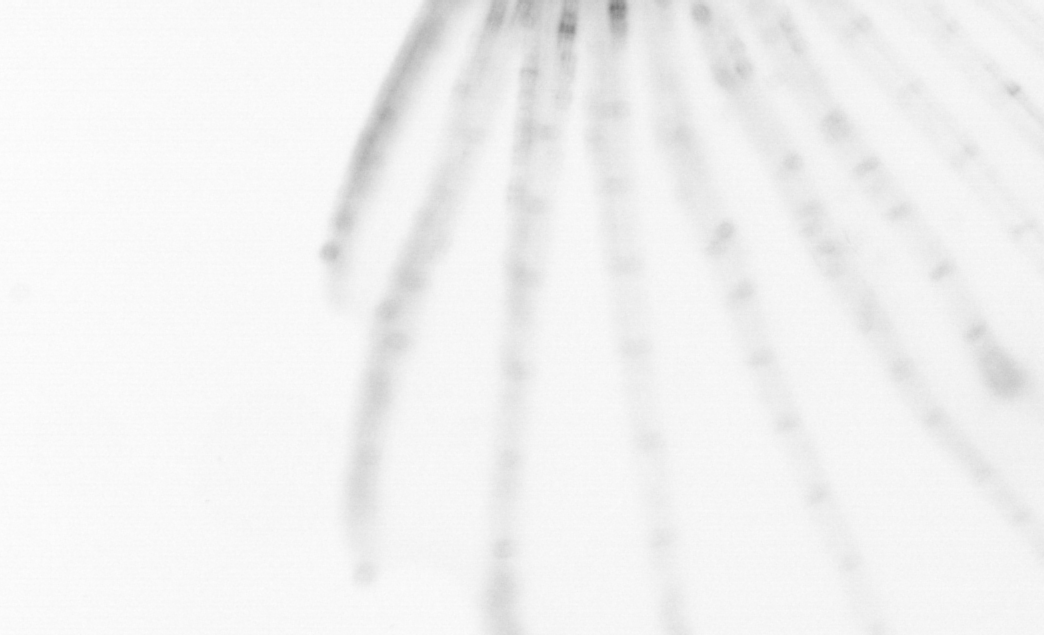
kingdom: Animalia
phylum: Chordata
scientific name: Chordata
